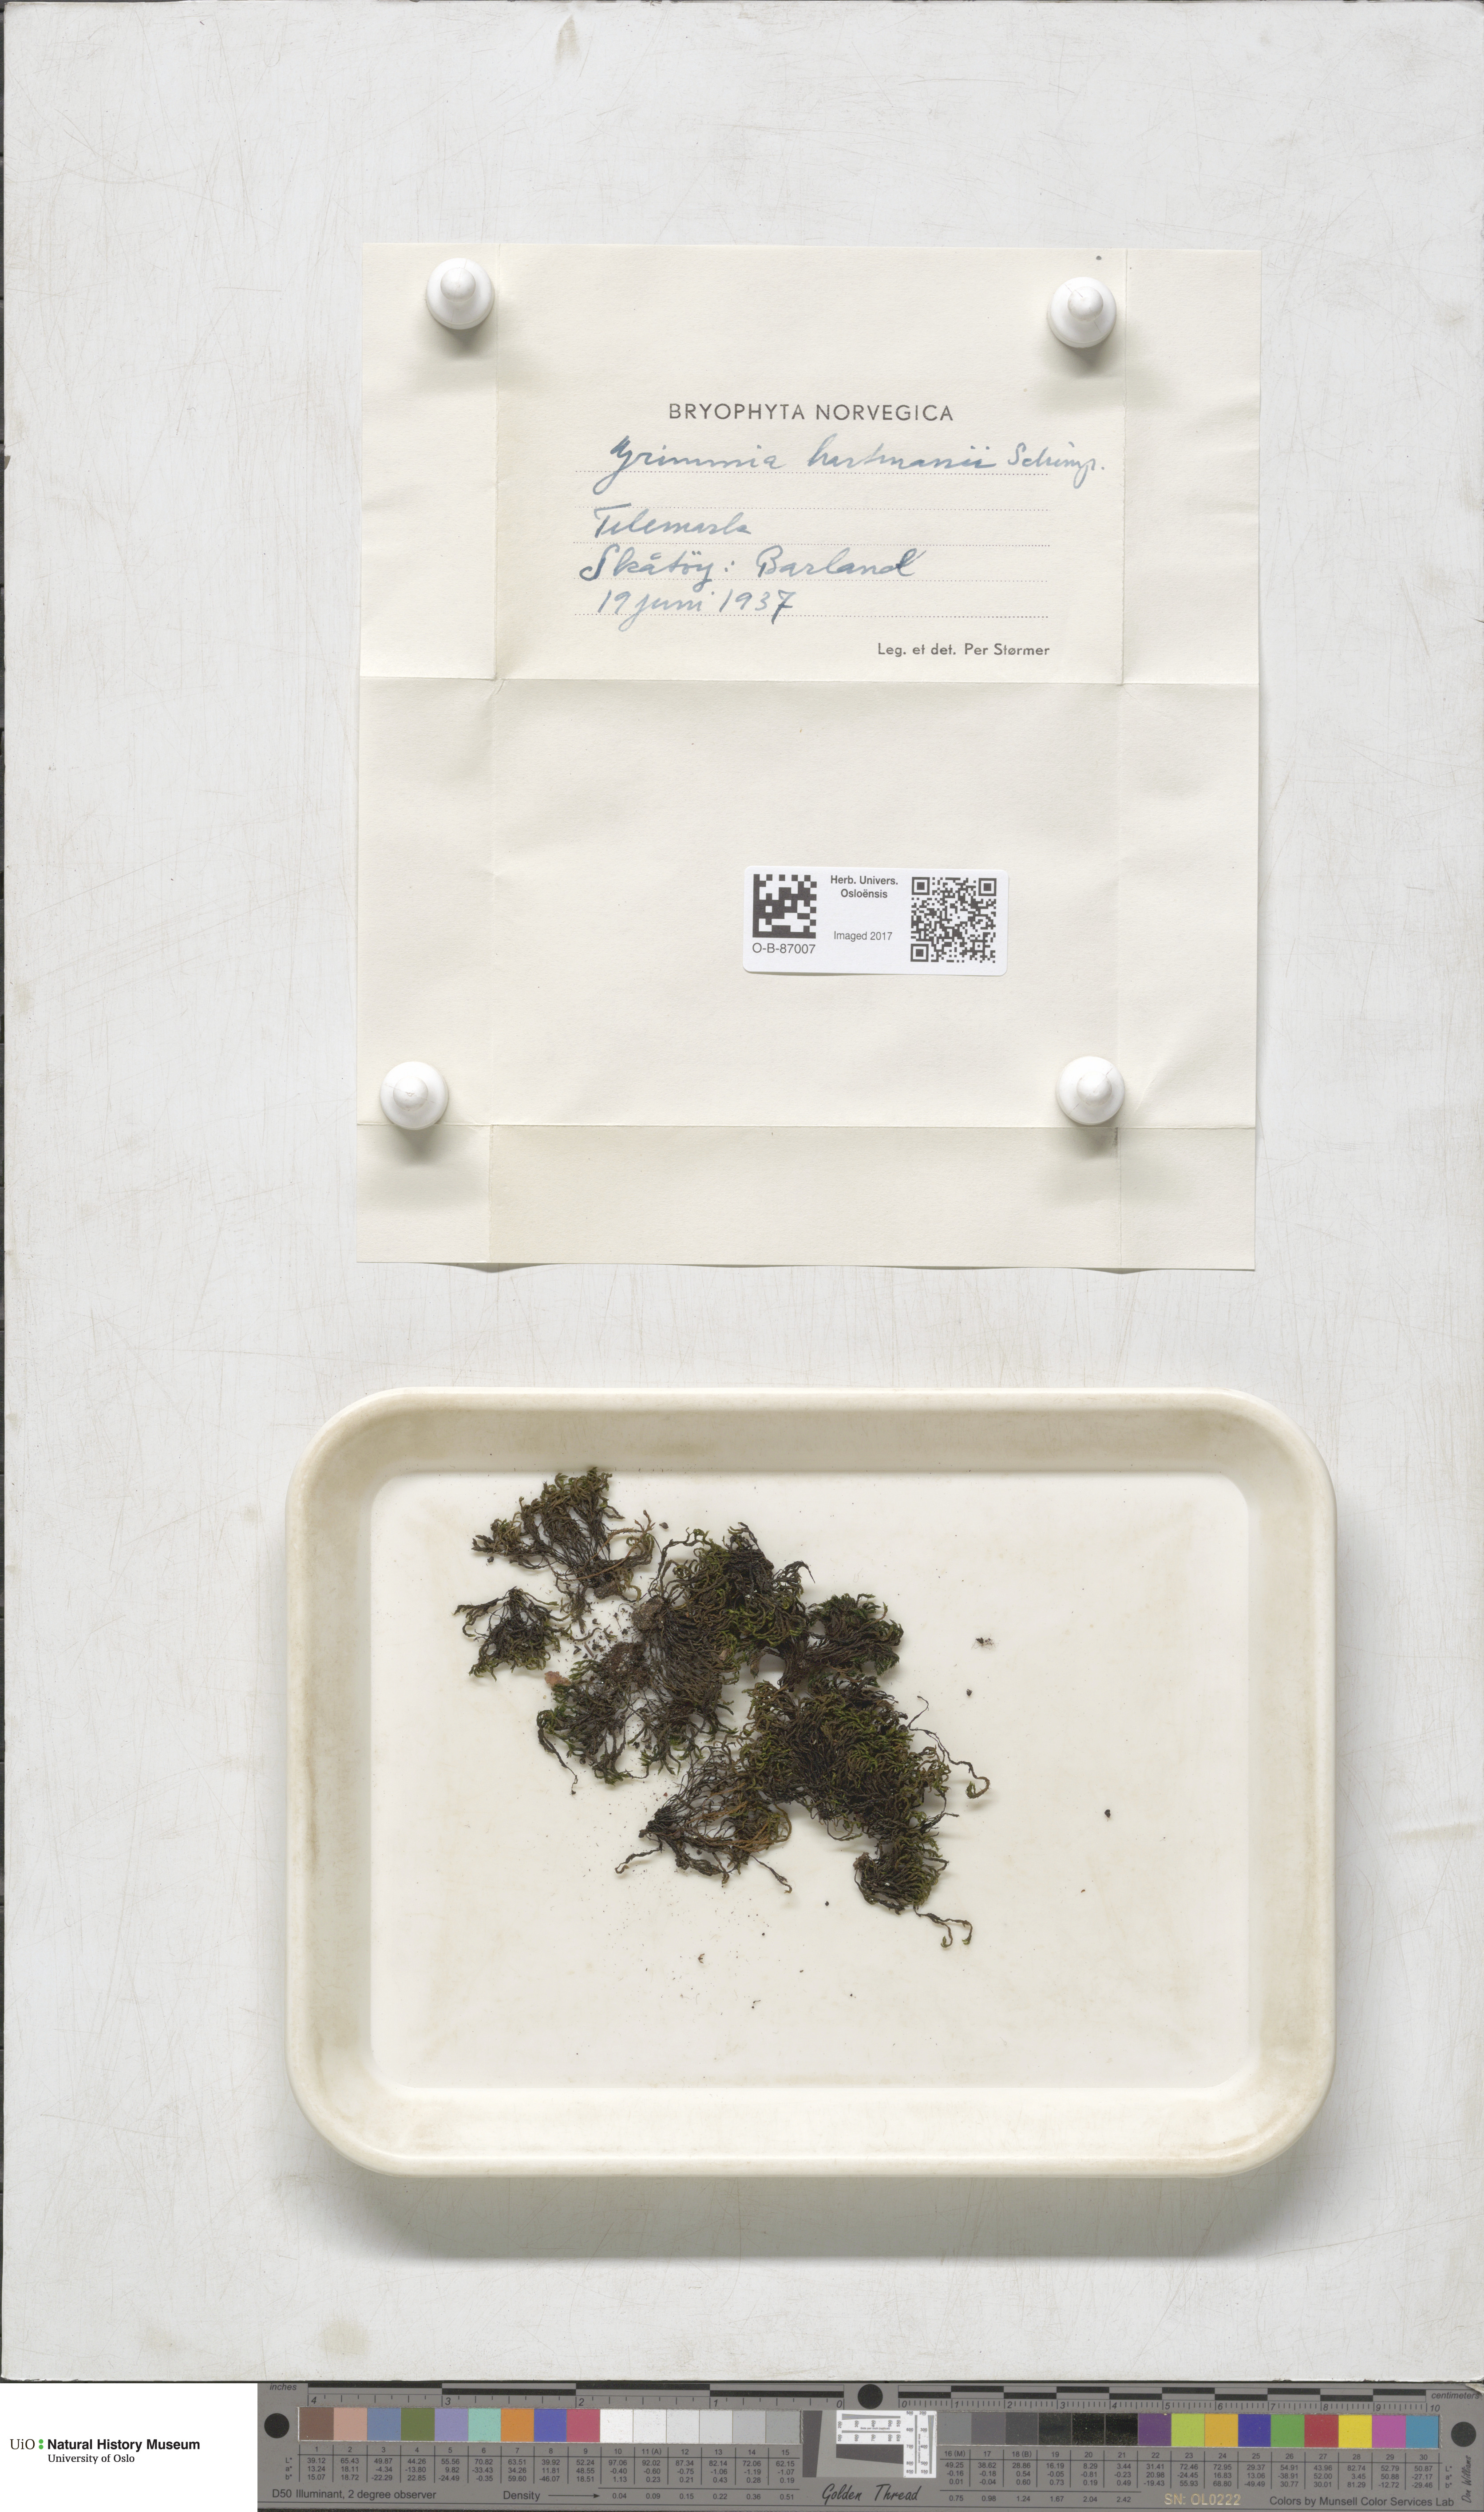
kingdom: Plantae
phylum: Bryophyta
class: Bryopsida
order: Grimmiales
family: Grimmiaceae
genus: Grimmia
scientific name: Grimmia hartmanii
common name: Hartman's grimmia
